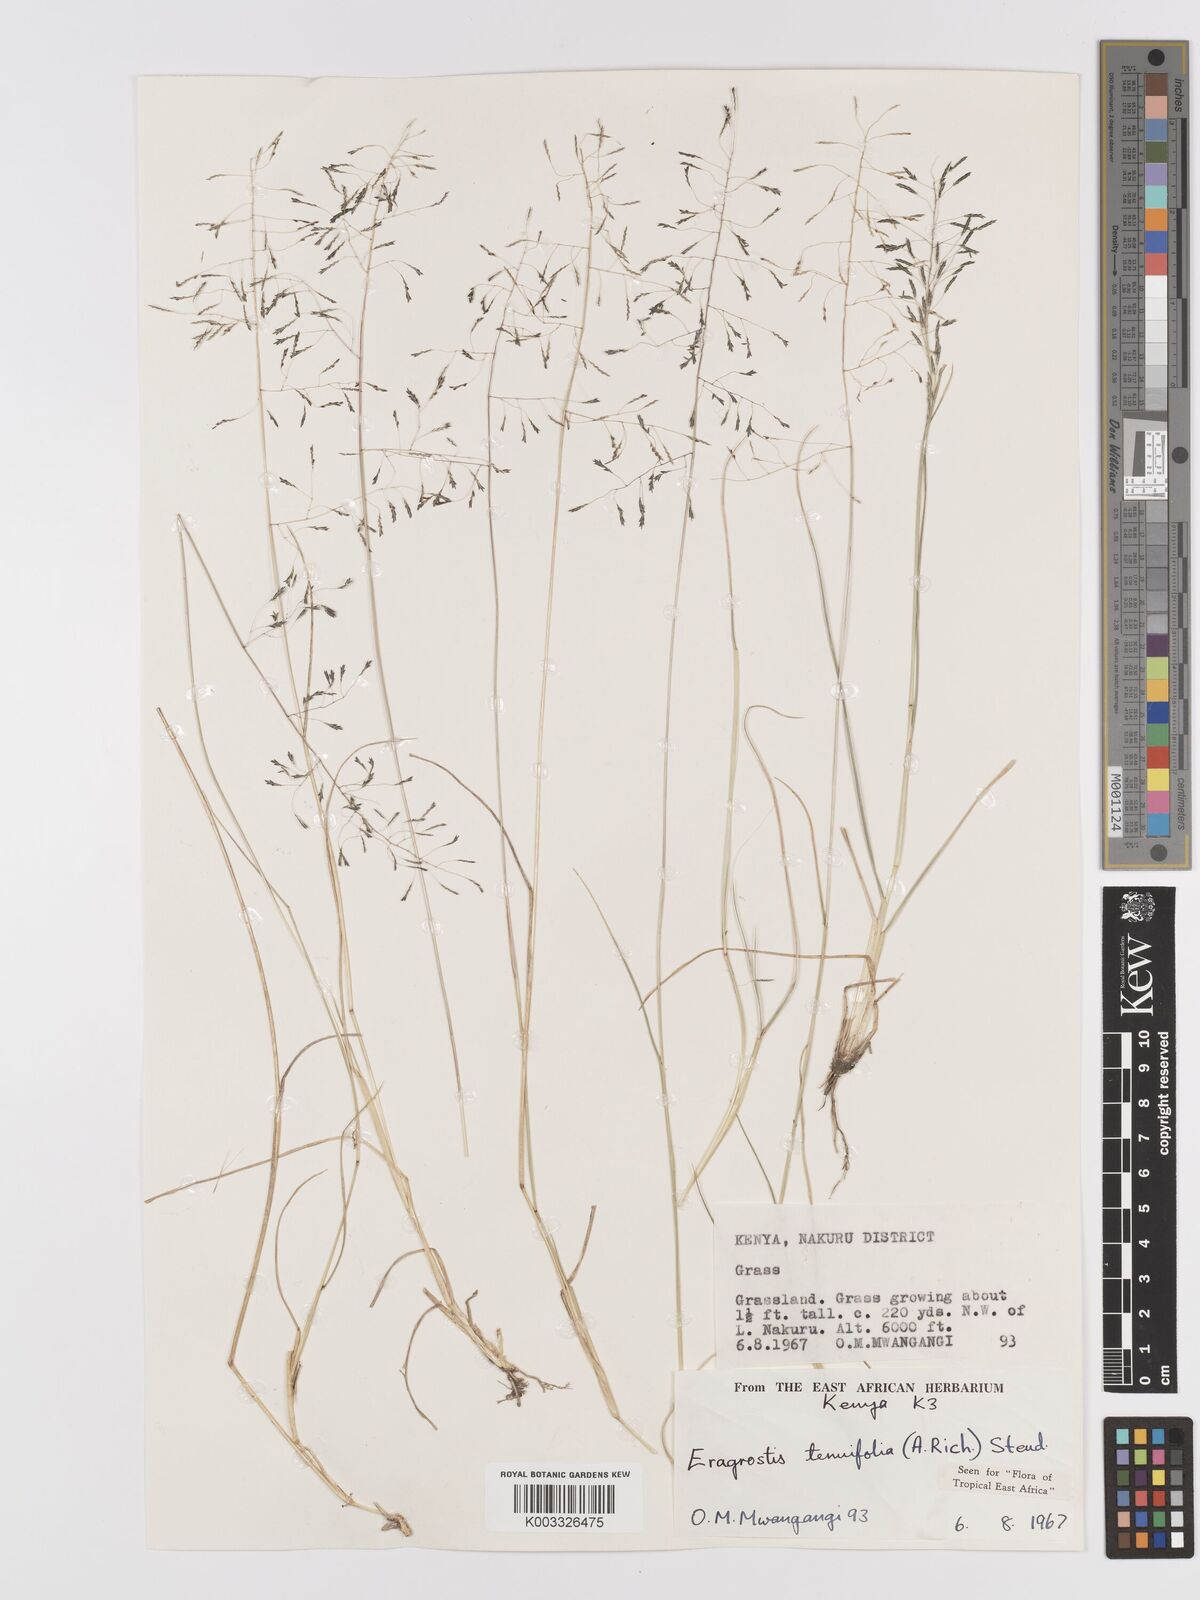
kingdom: Plantae
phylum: Tracheophyta
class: Liliopsida
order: Poales
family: Poaceae
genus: Eragrostis
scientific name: Eragrostis tenuifolia
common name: Elastic grass
